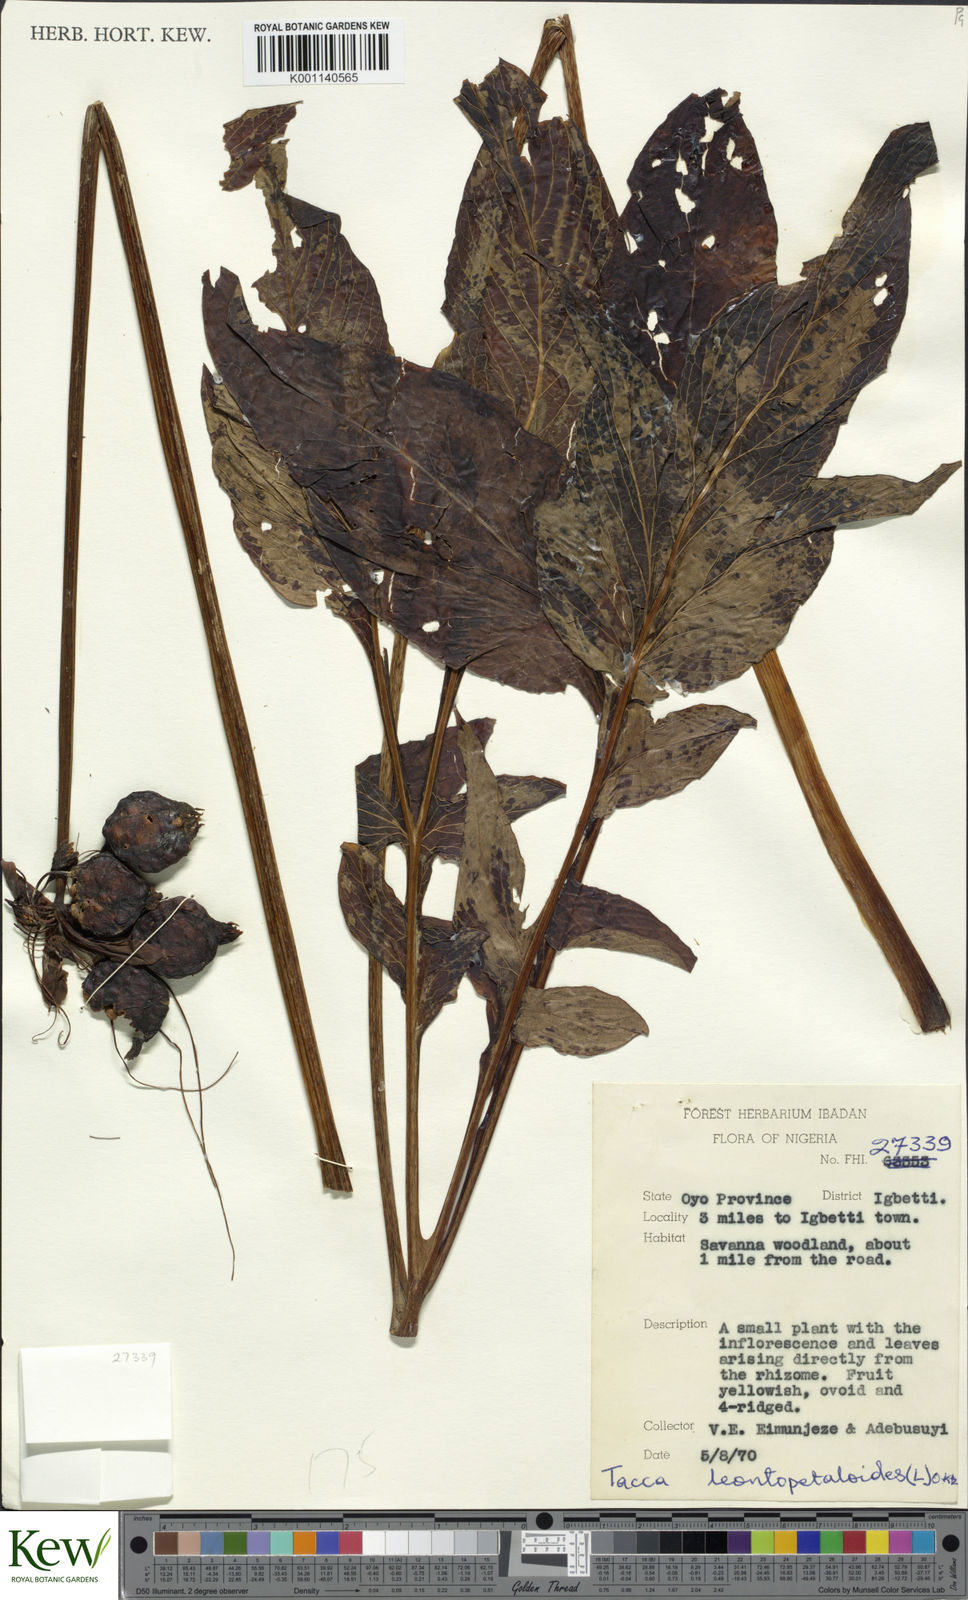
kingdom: Plantae
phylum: Tracheophyta
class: Liliopsida
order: Dioscoreales
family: Dioscoreaceae
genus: Tacca
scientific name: Tacca leontopetaloides
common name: Arrowroot
